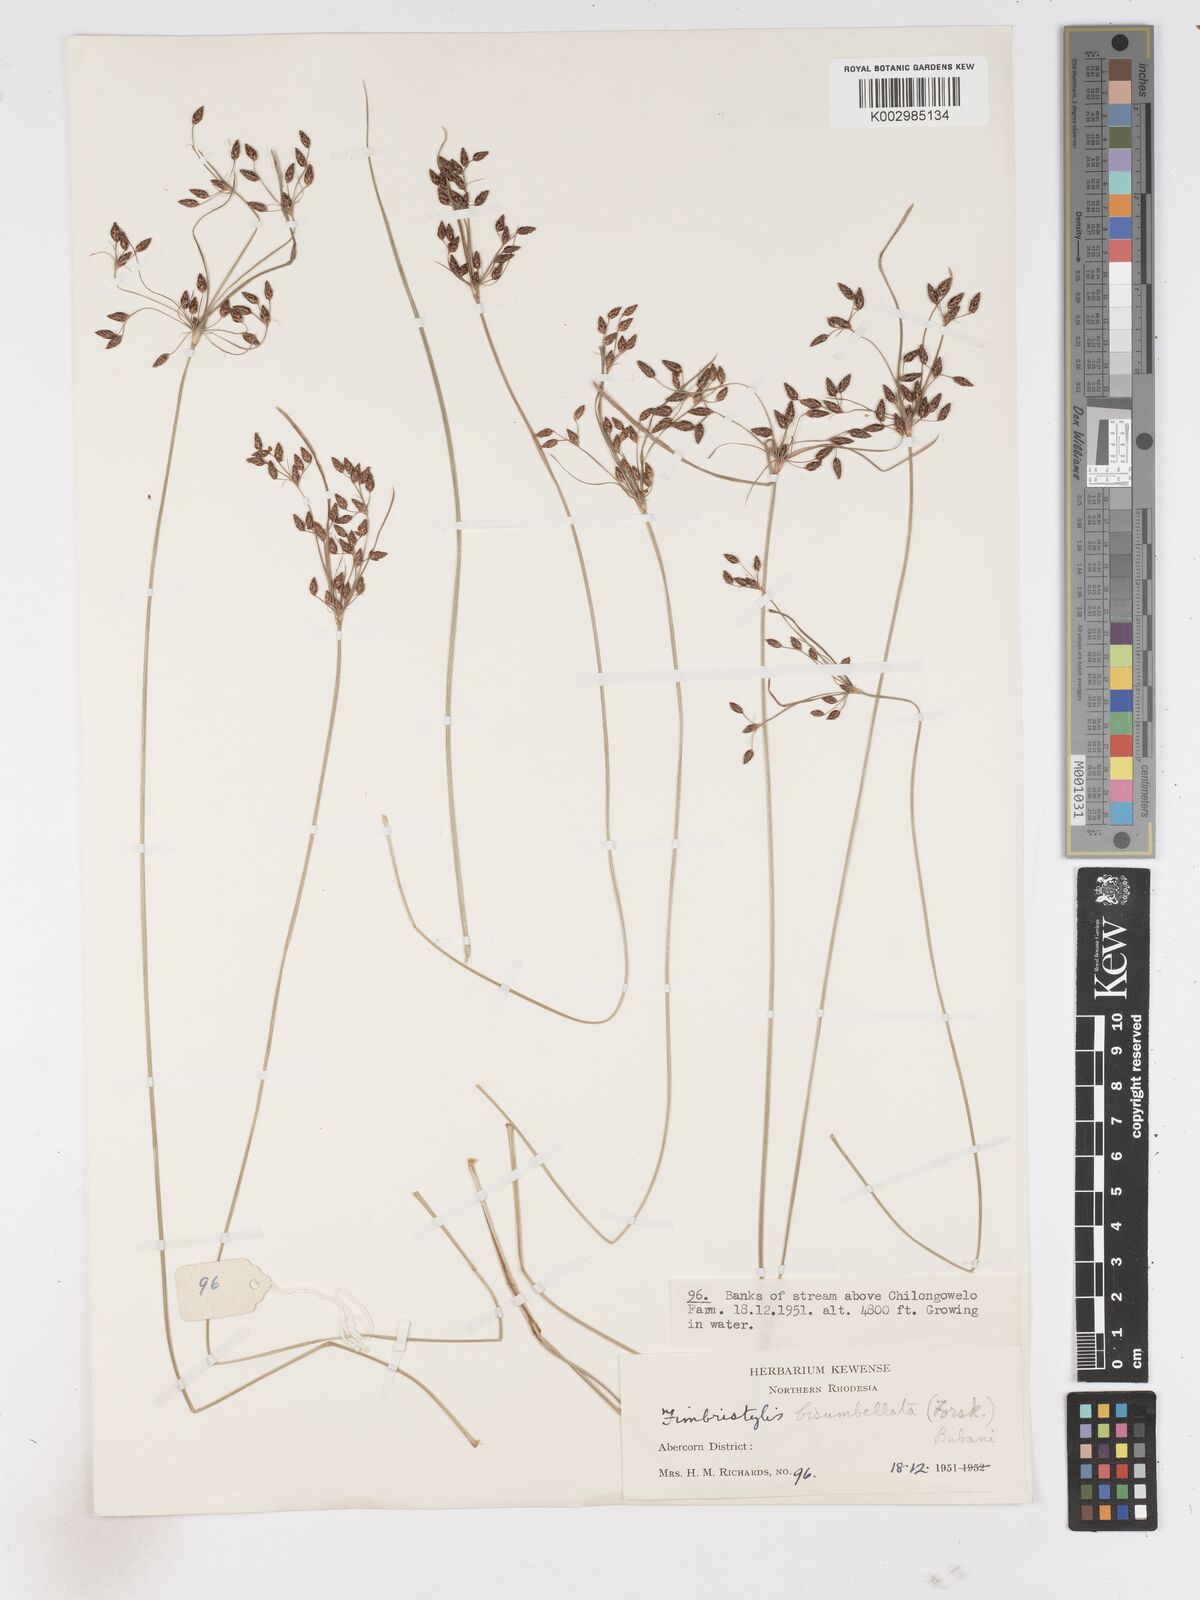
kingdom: Plantae
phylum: Tracheophyta
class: Liliopsida
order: Poales
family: Cyperaceae
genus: Fimbristylis
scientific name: Fimbristylis dichotoma
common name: Forked fimbry
